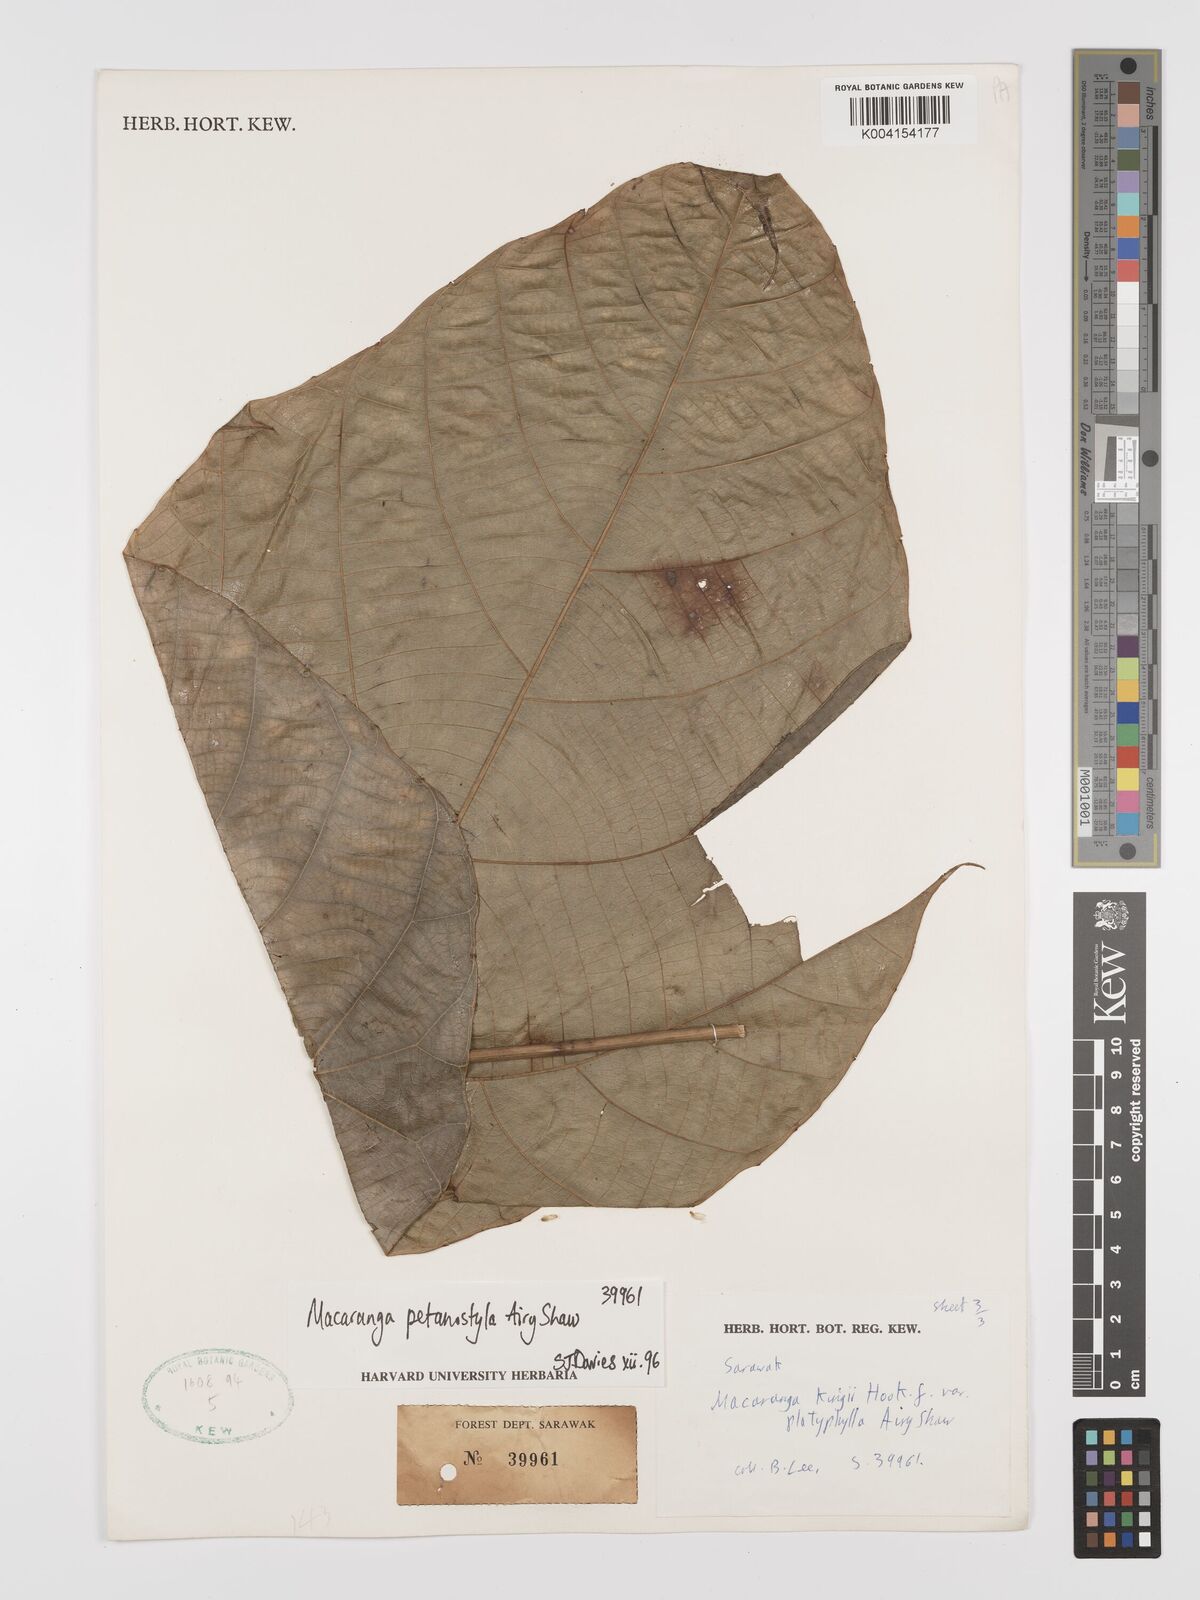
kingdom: Plantae
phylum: Tracheophyta
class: Magnoliopsida
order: Malpighiales
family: Euphorbiaceae
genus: Macaranga
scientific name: Macaranga petanostyla
